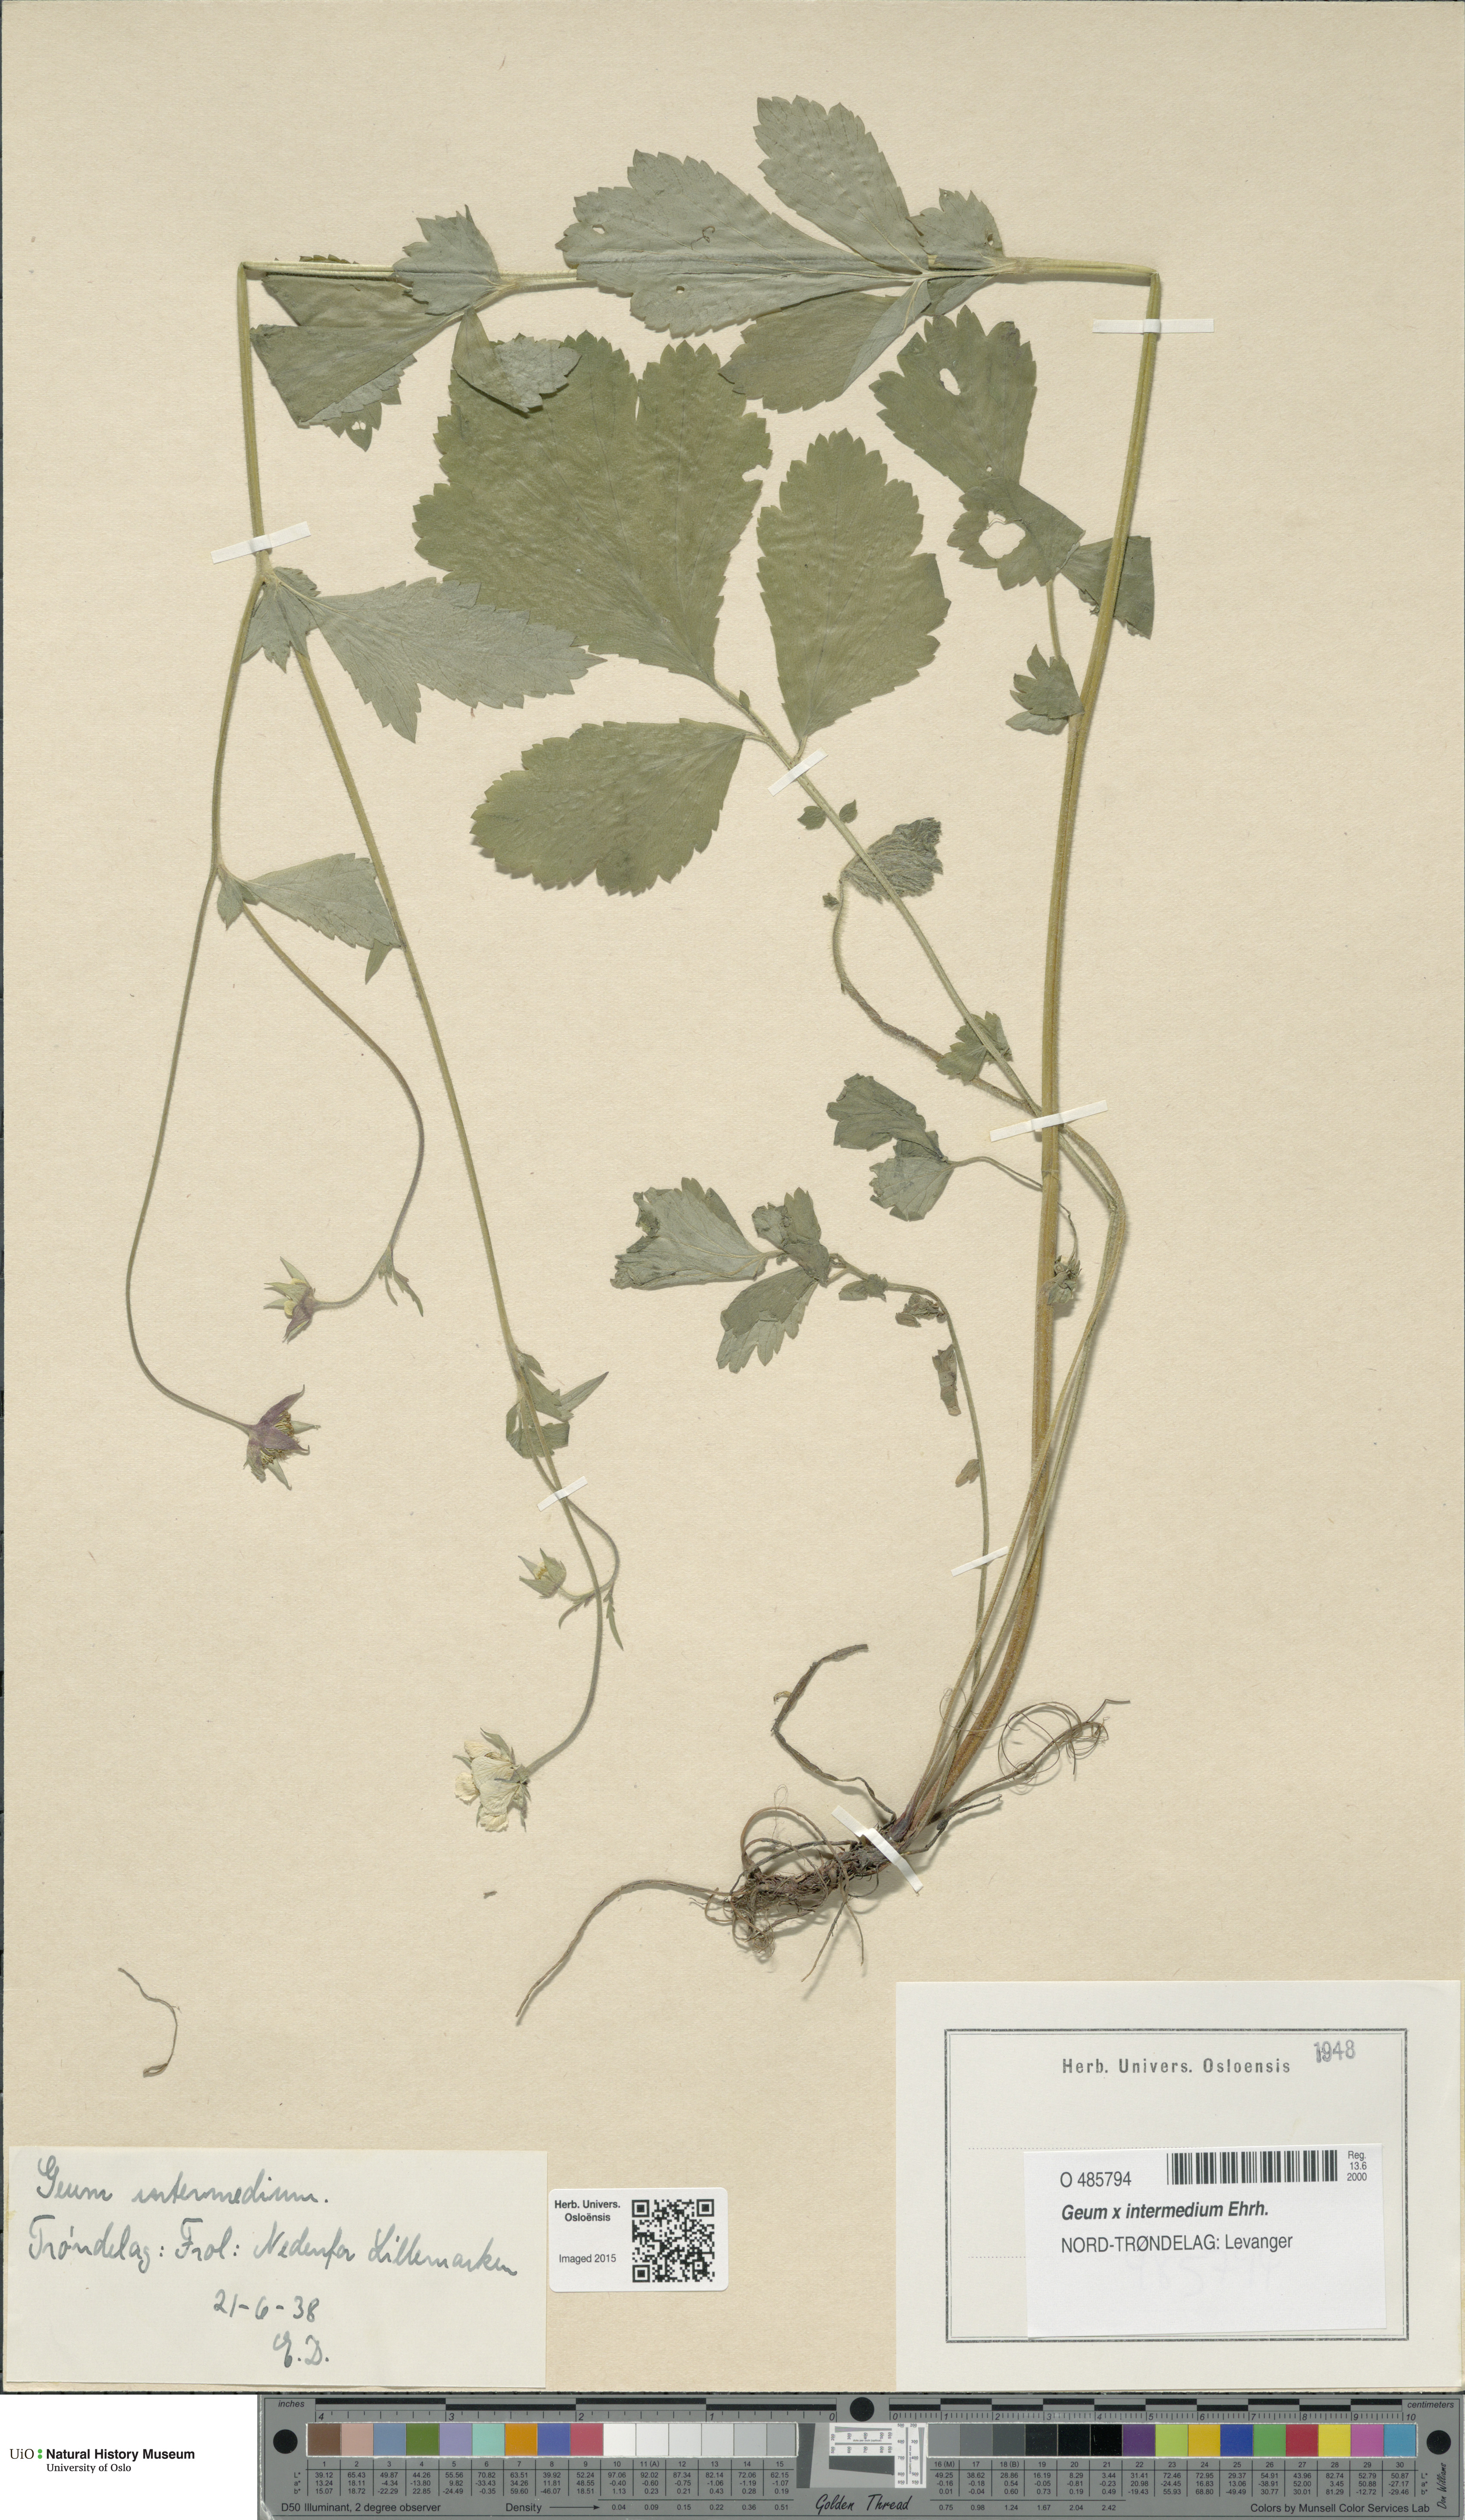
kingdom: Plantae
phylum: Tracheophyta
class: Magnoliopsida
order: Rosales
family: Rosaceae
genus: Geum
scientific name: Geum intermedium
